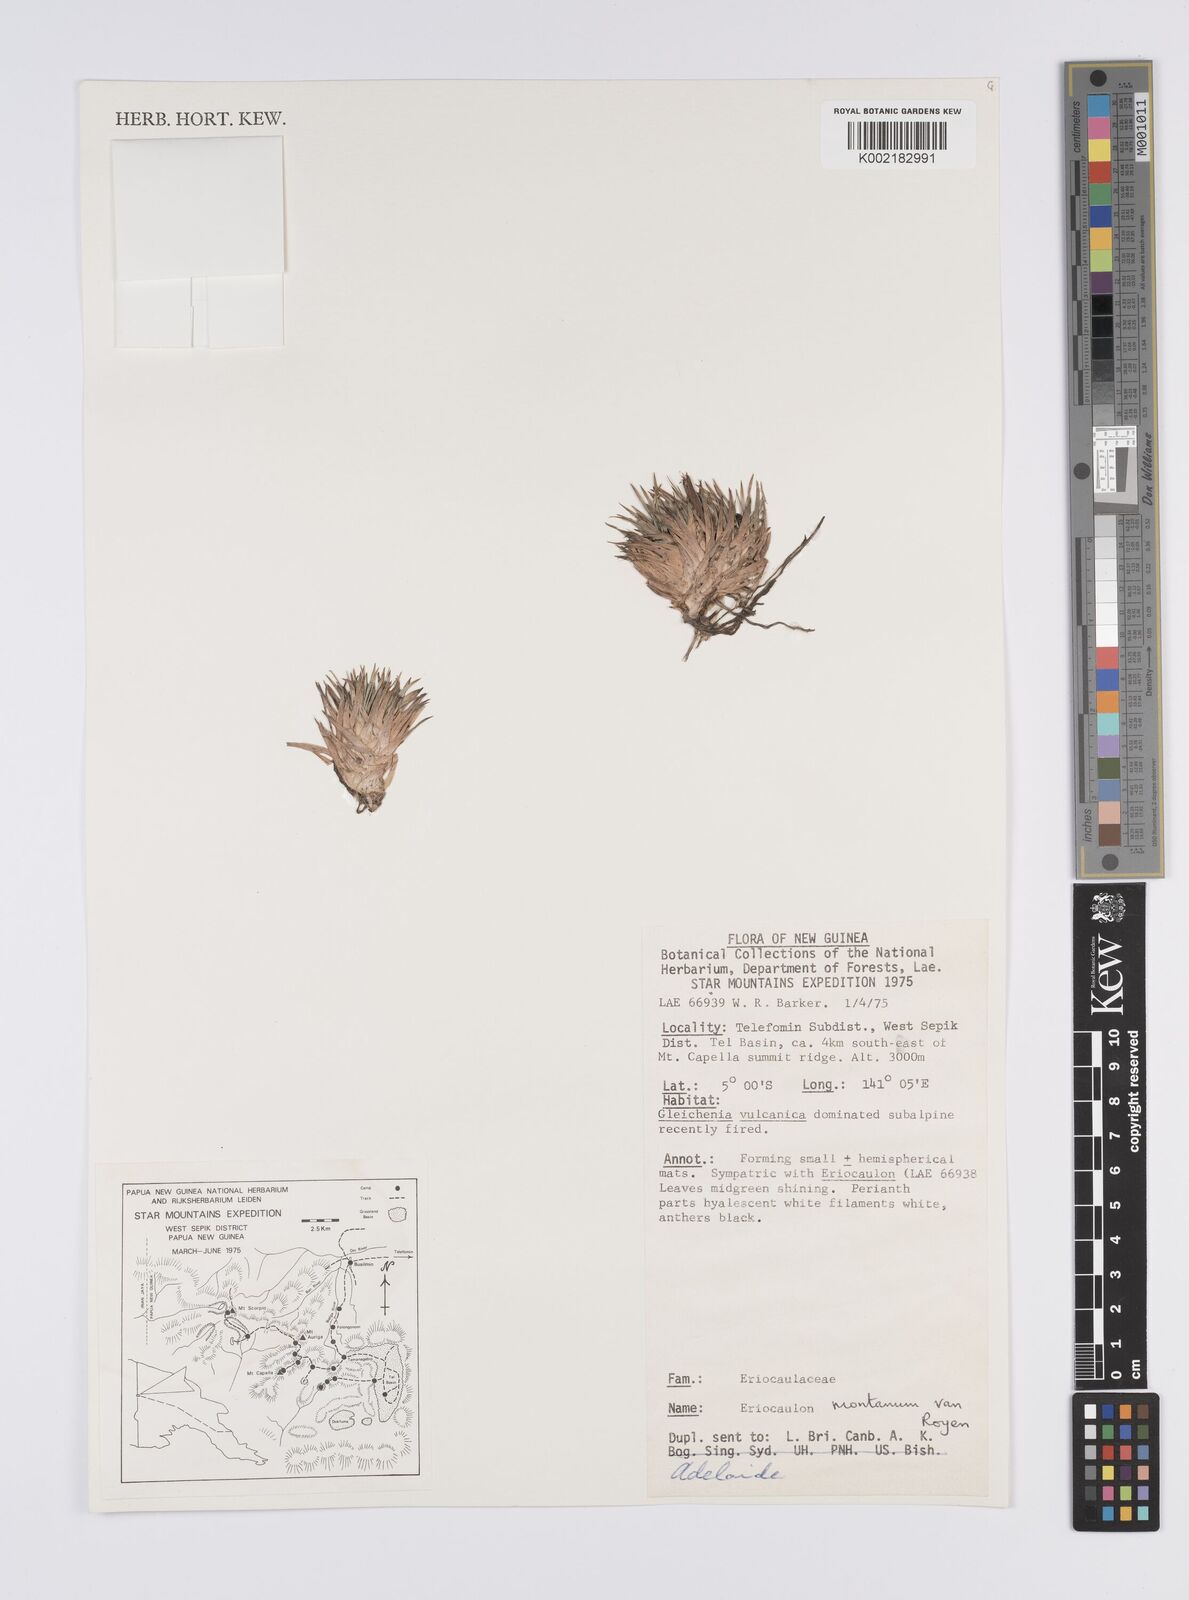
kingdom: Plantae
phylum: Tracheophyta
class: Liliopsida
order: Poales
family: Eriocaulaceae
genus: Eriocaulon
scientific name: Eriocaulon montanum
